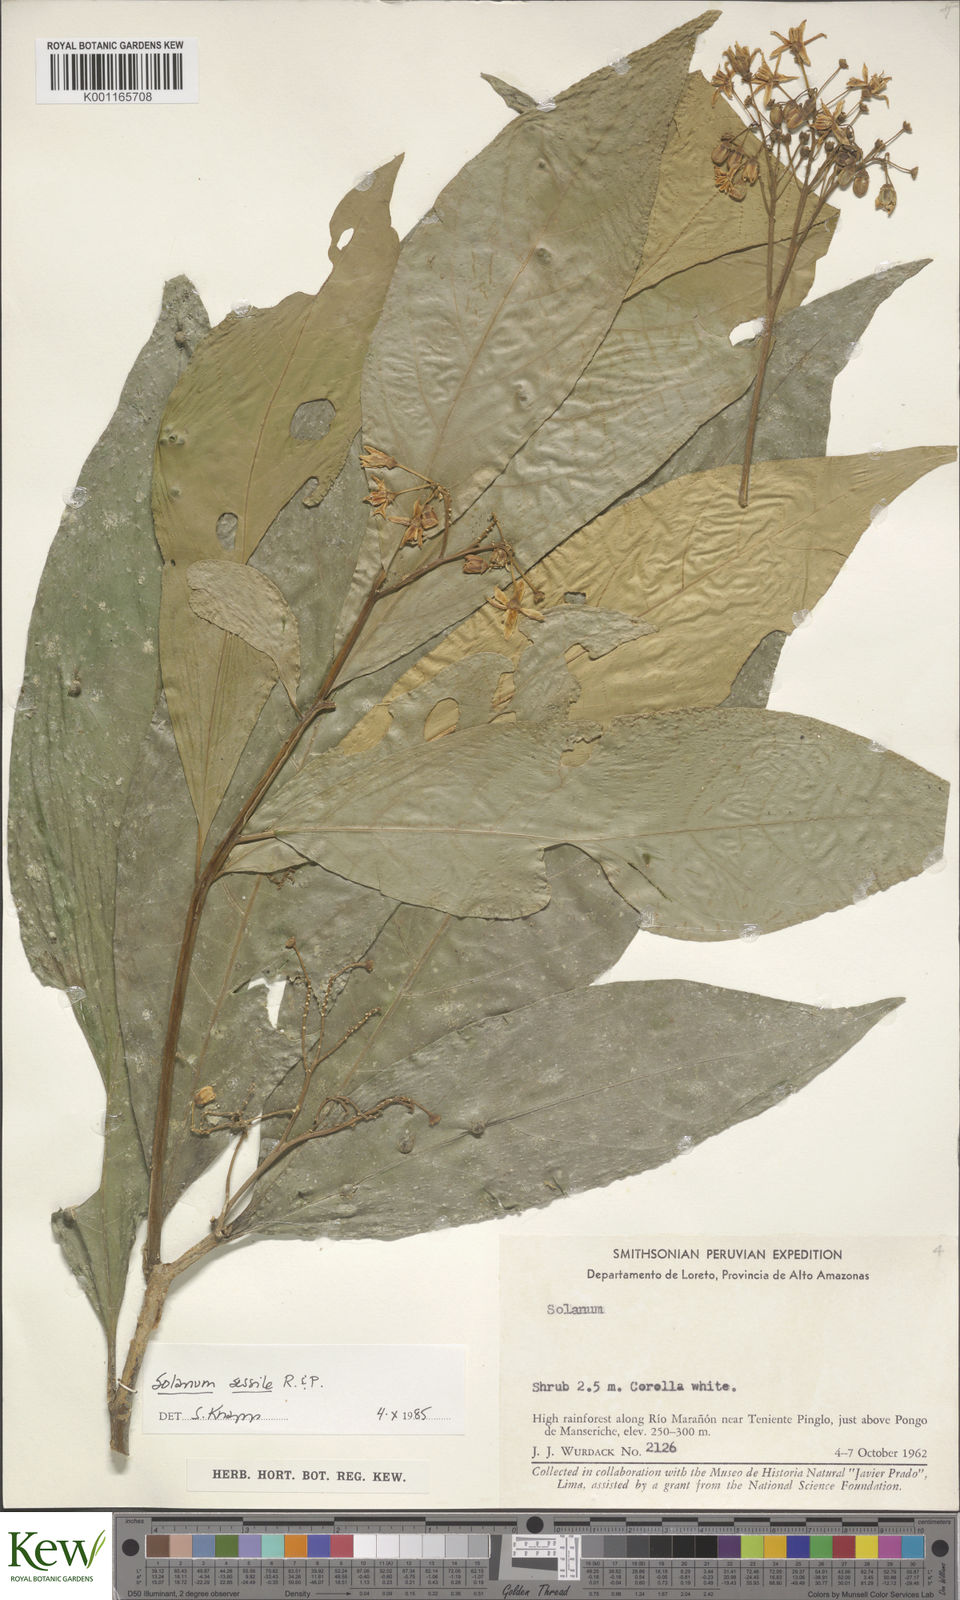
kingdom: Plantae
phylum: Tracheophyta
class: Magnoliopsida
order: Solanales
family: Solanaceae
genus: Solanum
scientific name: Solanum sessile
